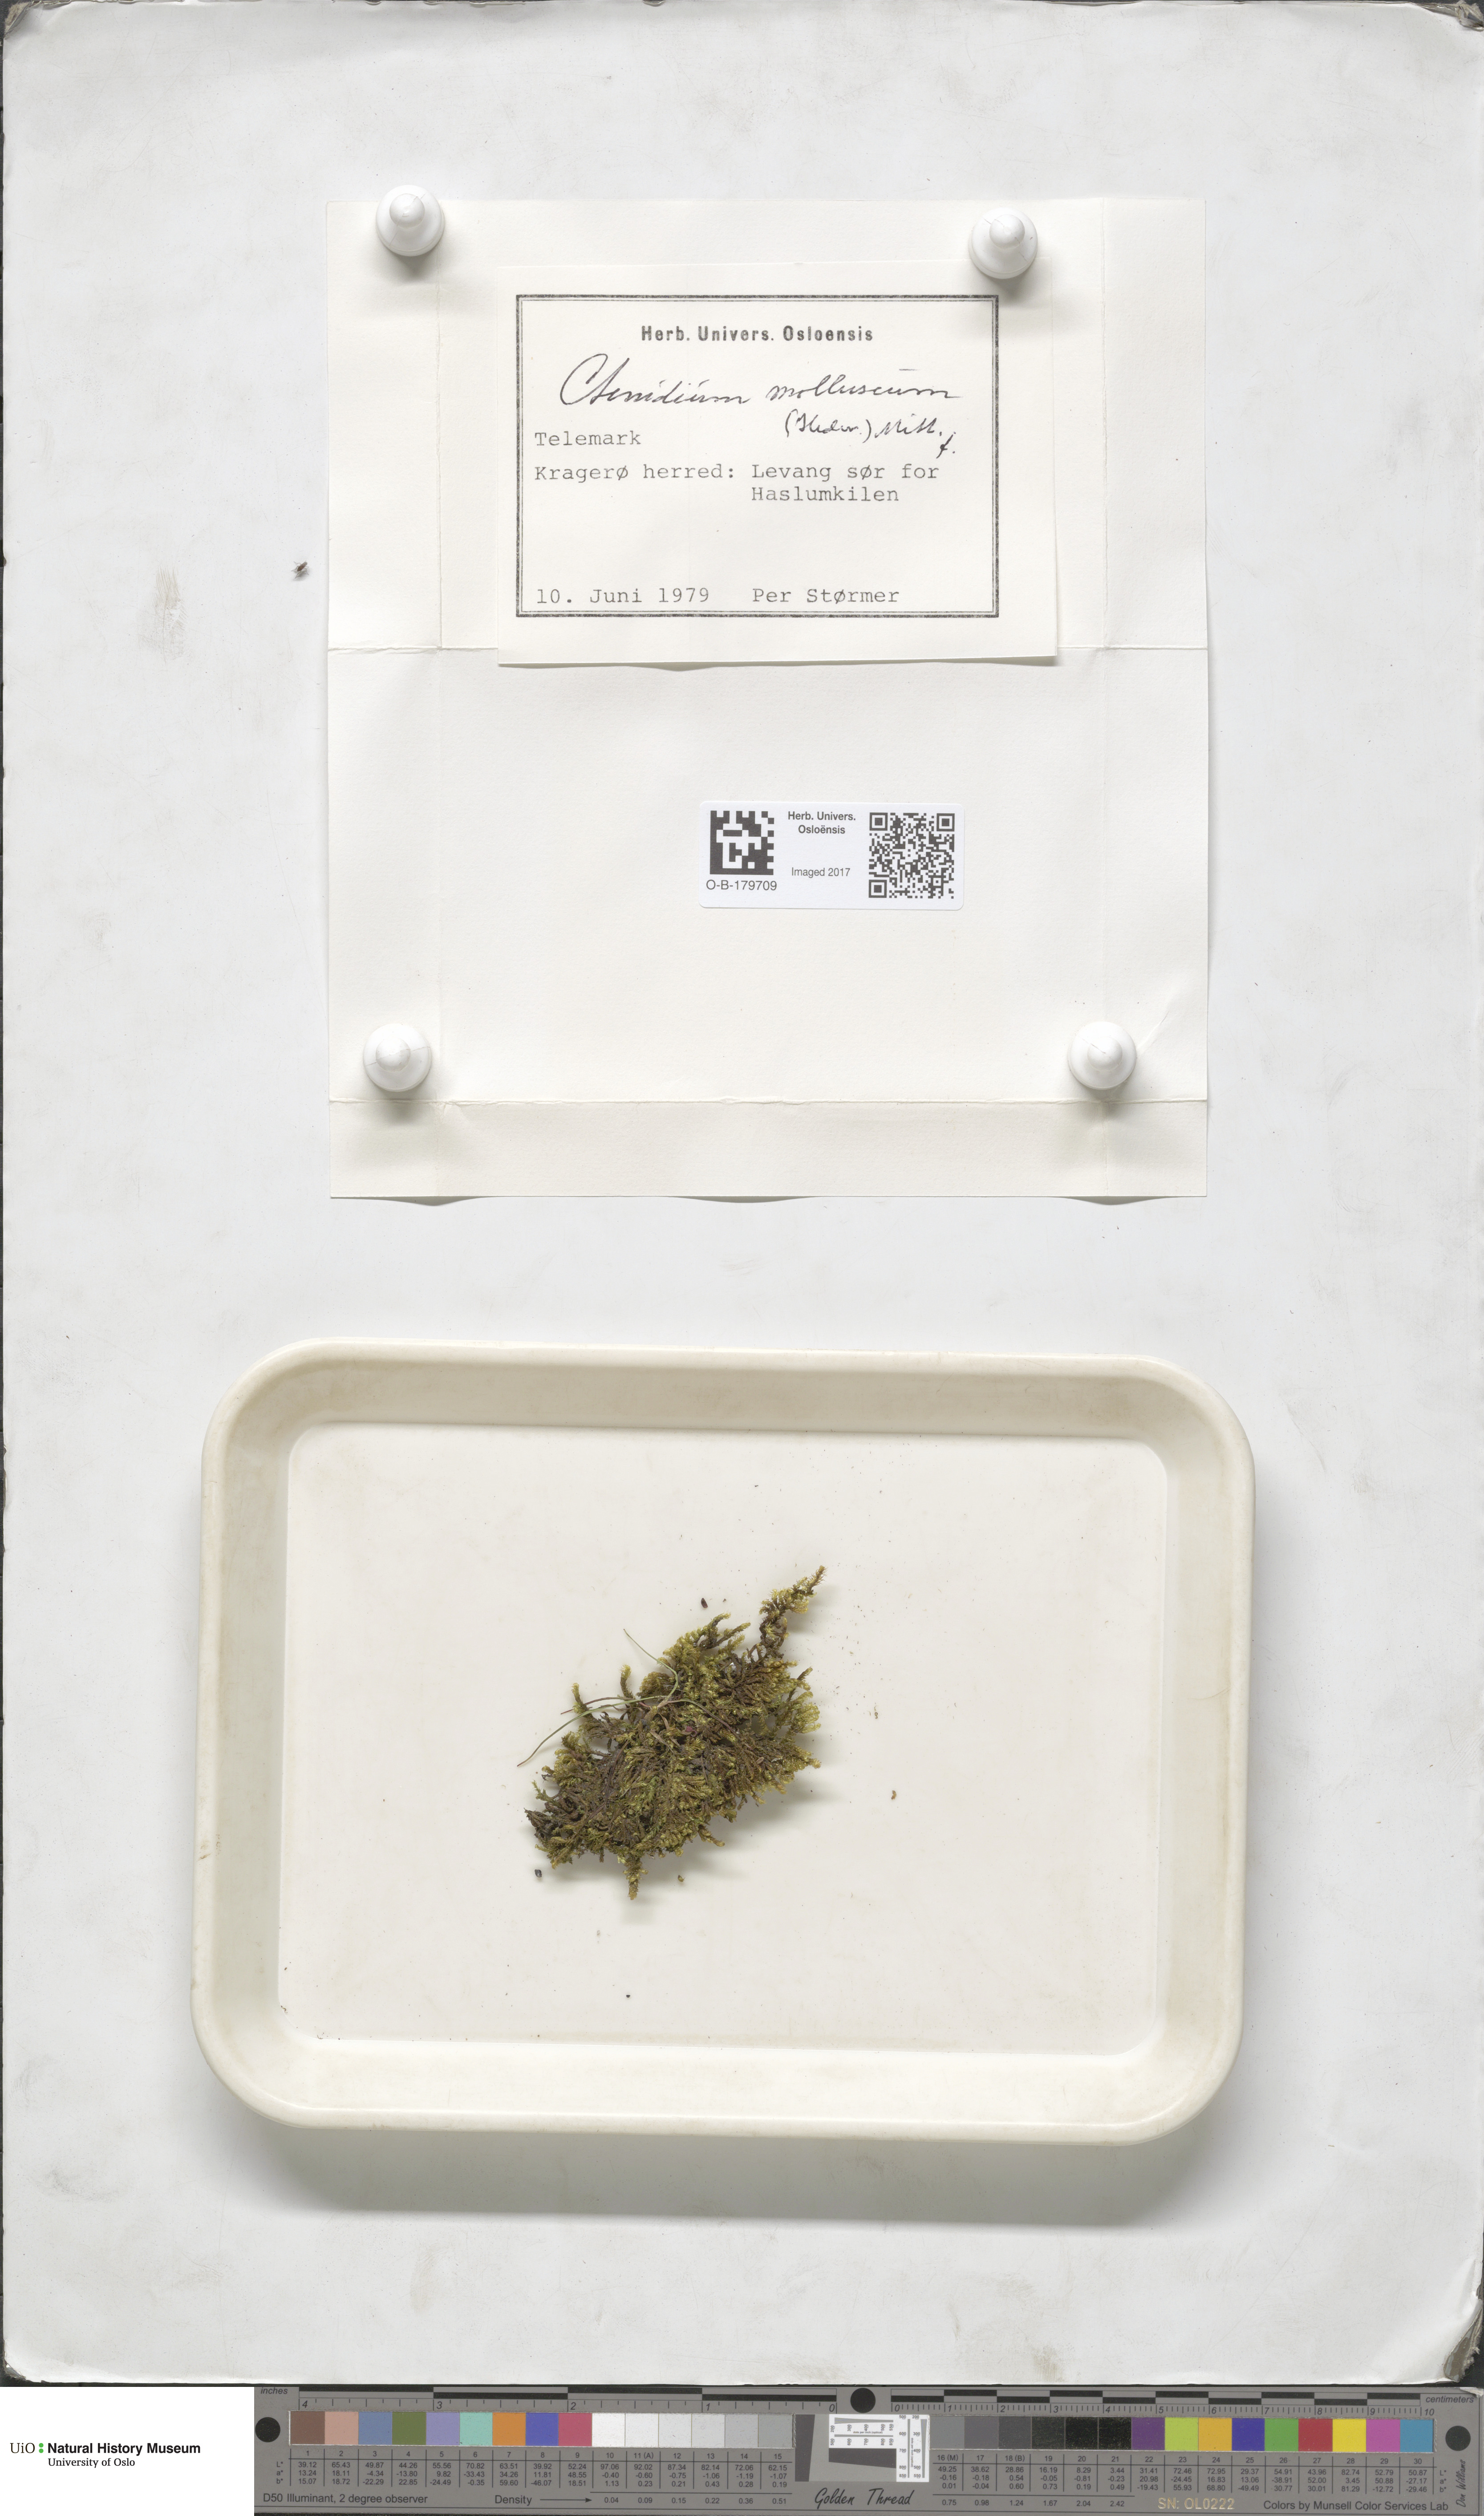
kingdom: Plantae
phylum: Bryophyta
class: Bryopsida
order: Hypnales
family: Myuriaceae
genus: Ctenidium
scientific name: Ctenidium molluscum
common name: Chalk comb-moss
